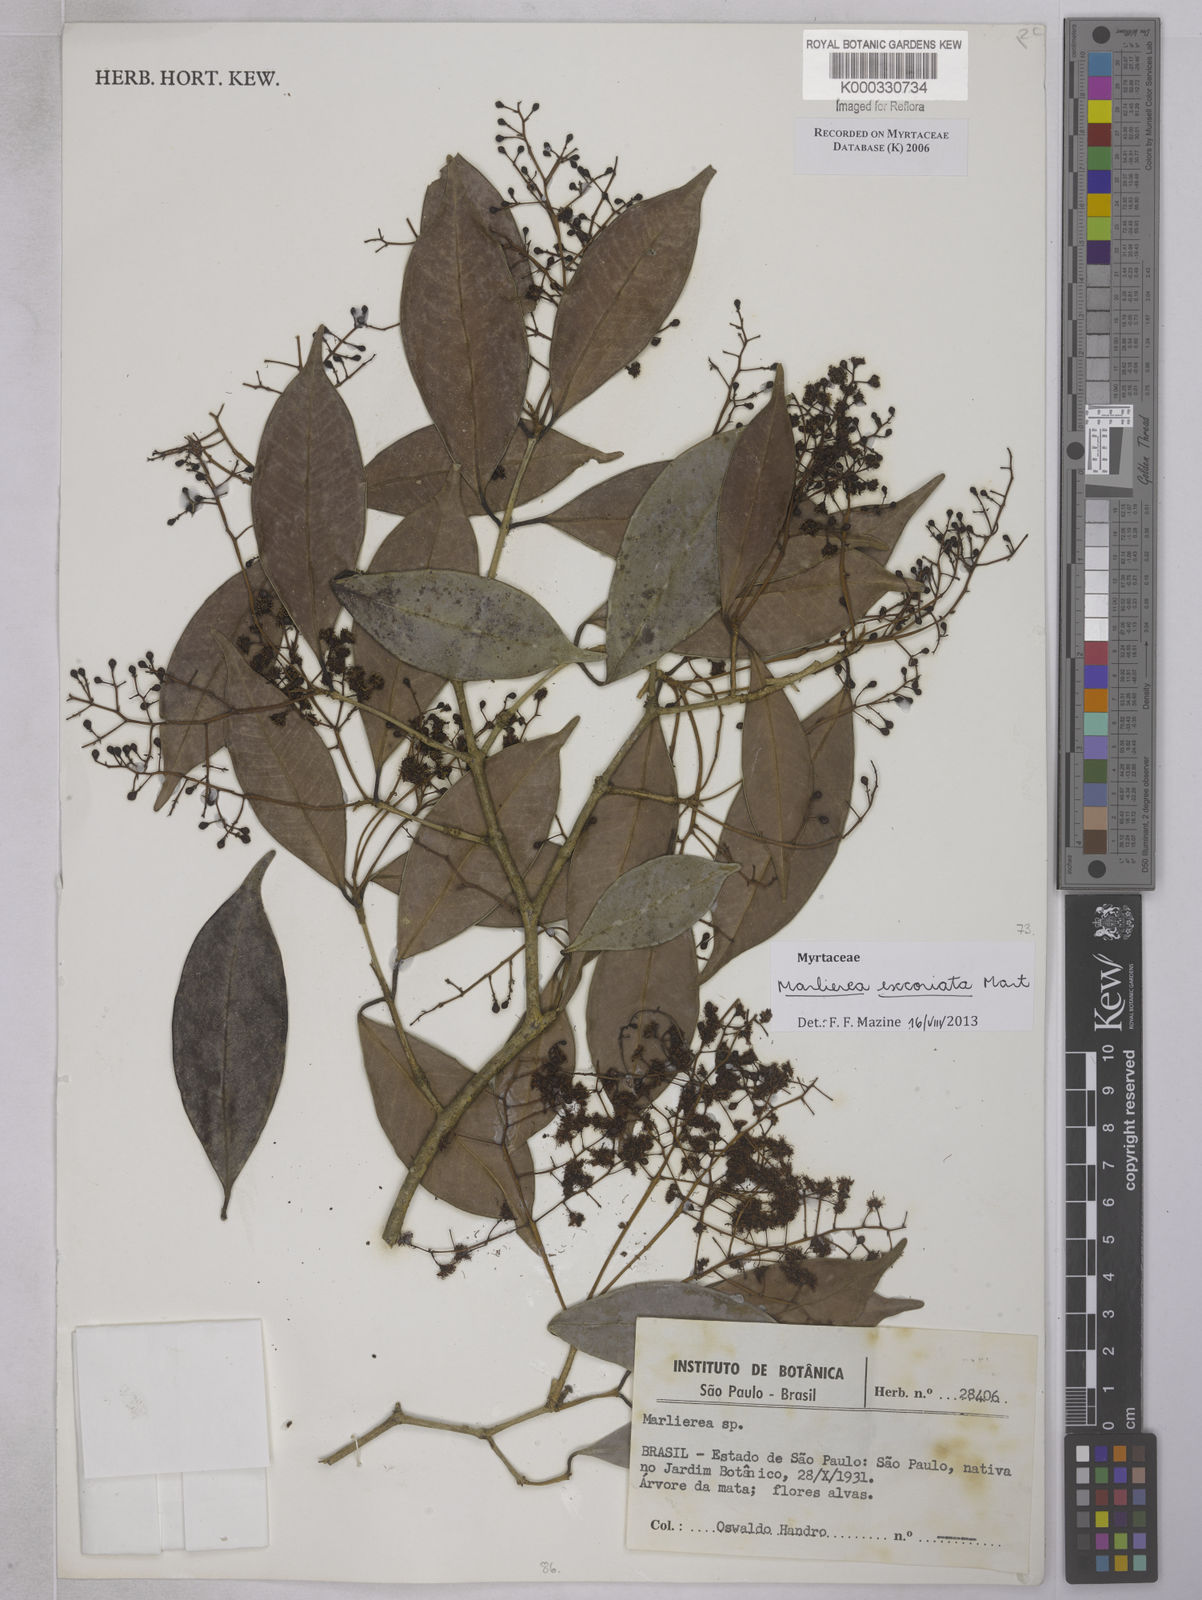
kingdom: Plantae
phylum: Tracheophyta
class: Magnoliopsida
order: Myrtales
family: Myrtaceae
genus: Myrcia
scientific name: Myrcia excoriata
